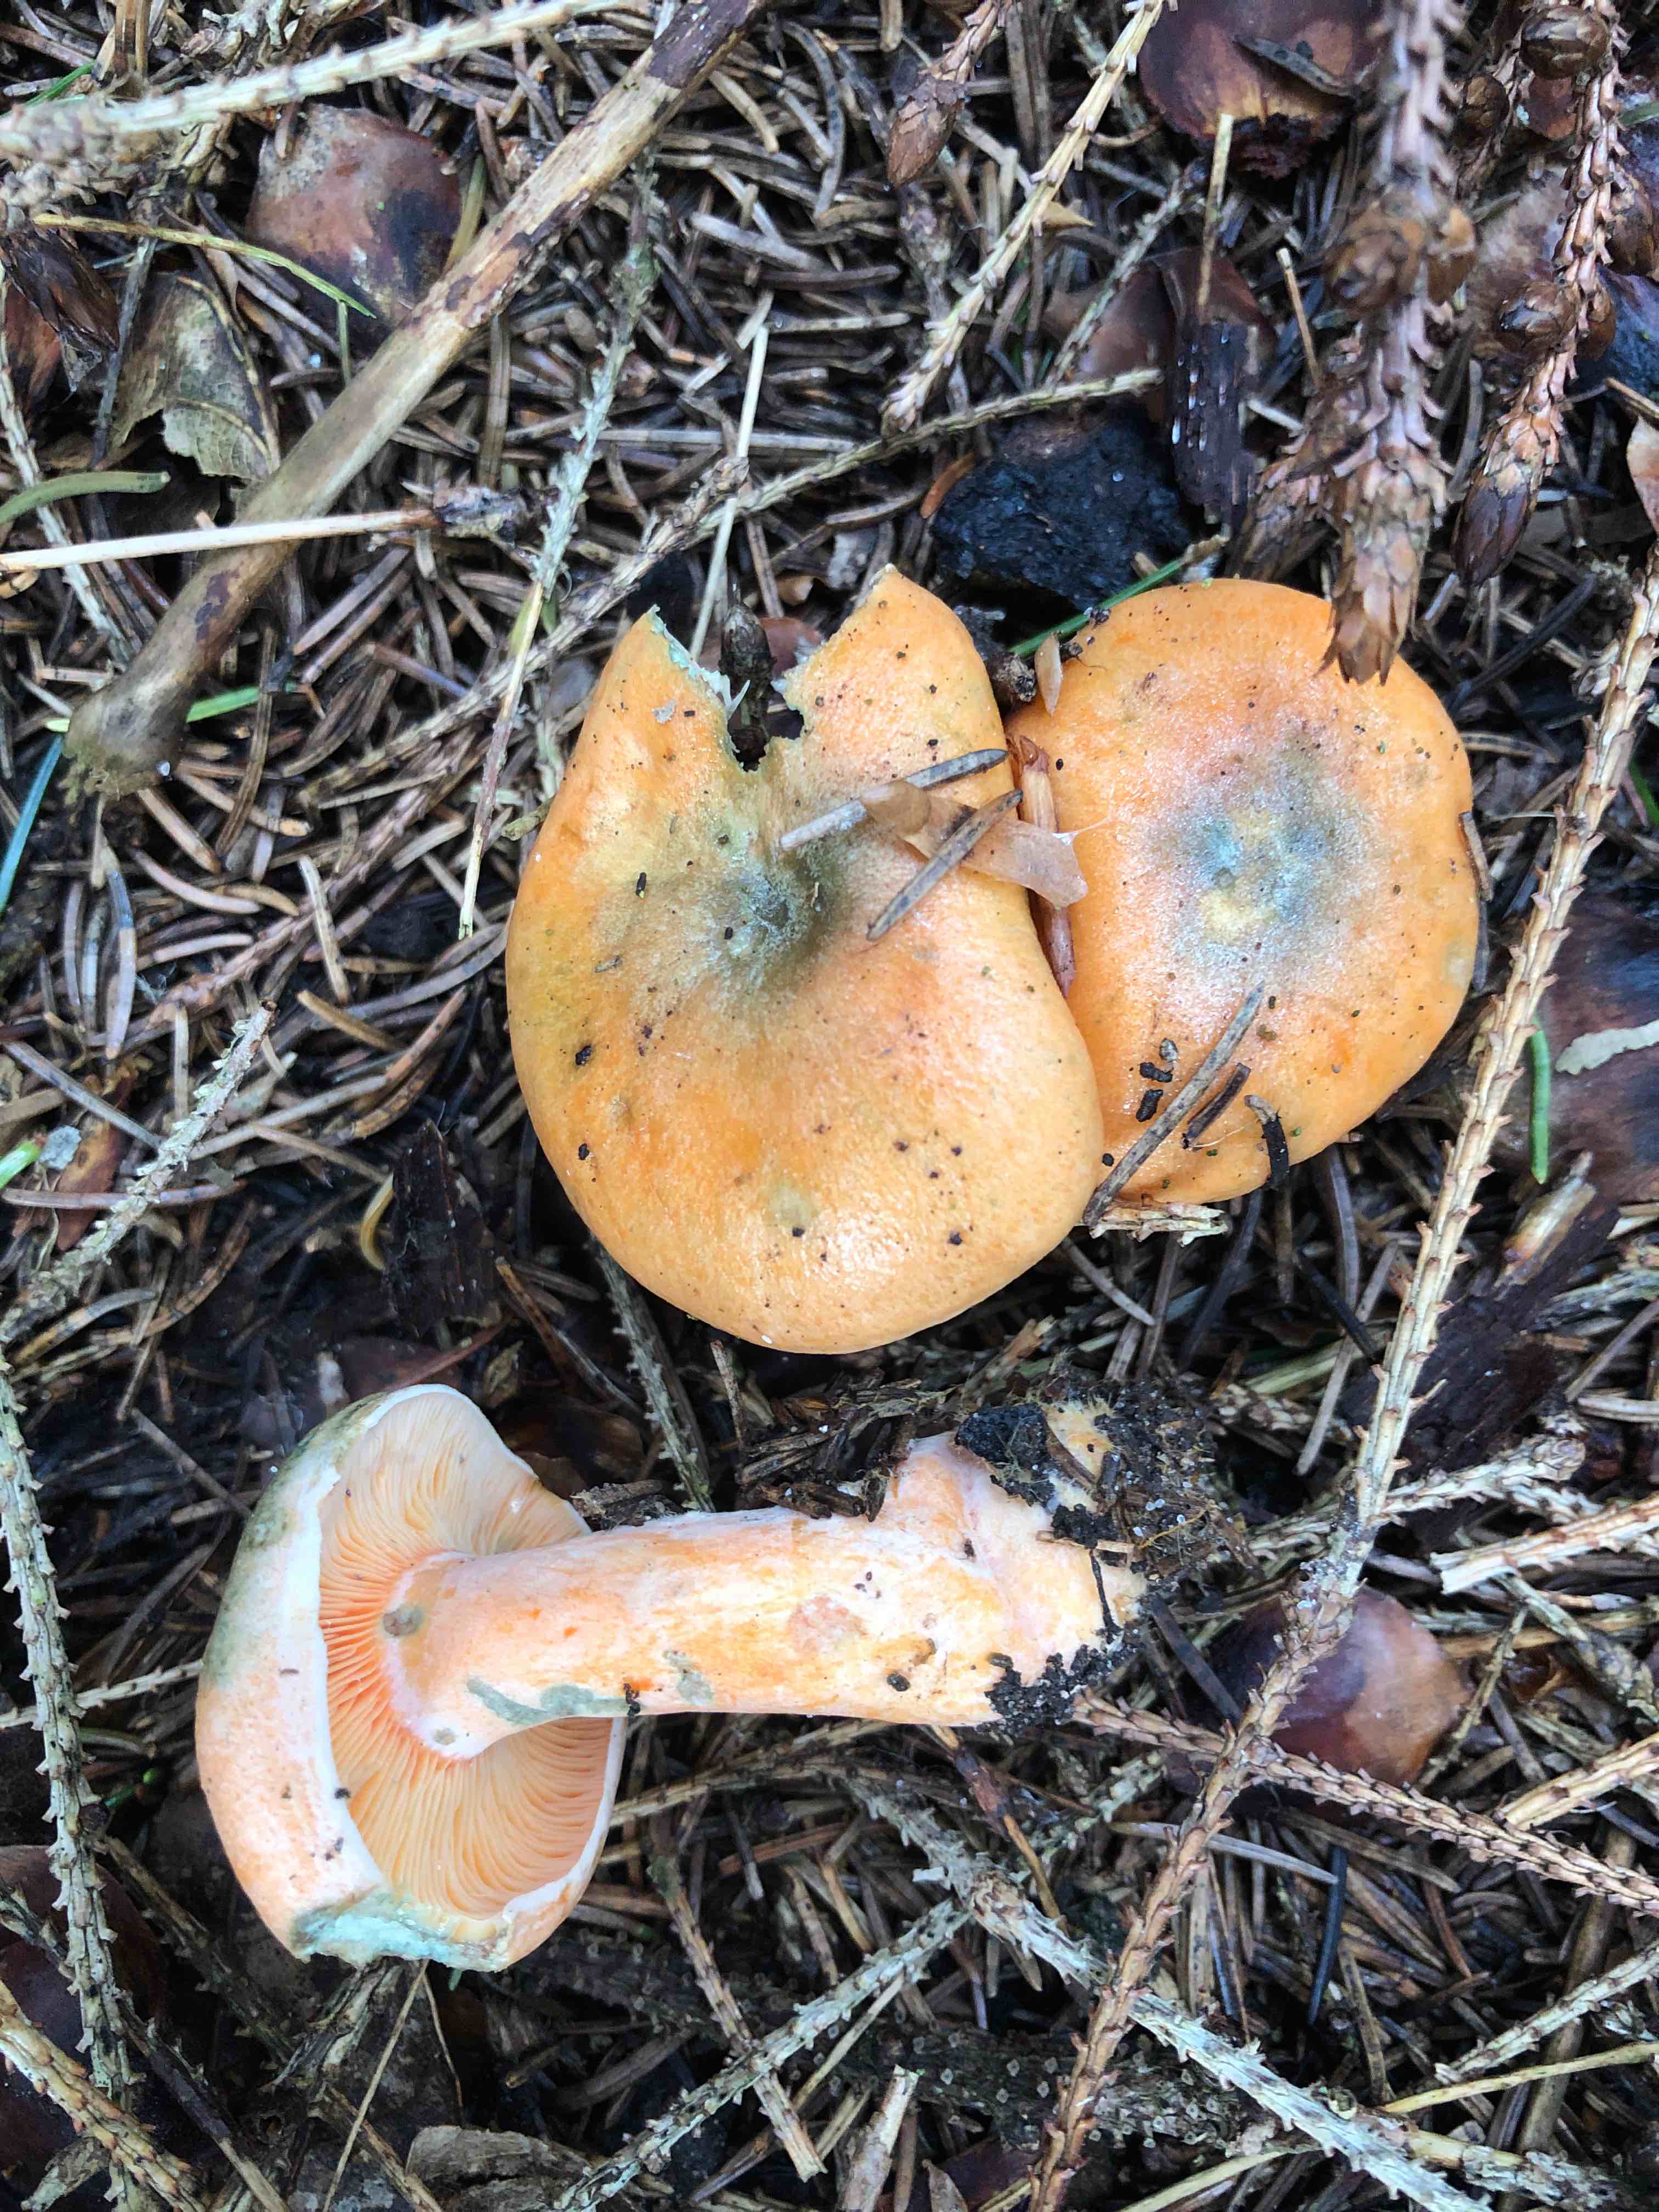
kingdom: Fungi
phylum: Basidiomycota
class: Agaricomycetes
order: Russulales
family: Russulaceae
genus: Lactarius
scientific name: Lactarius deterrimus
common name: gran-mælkehat
